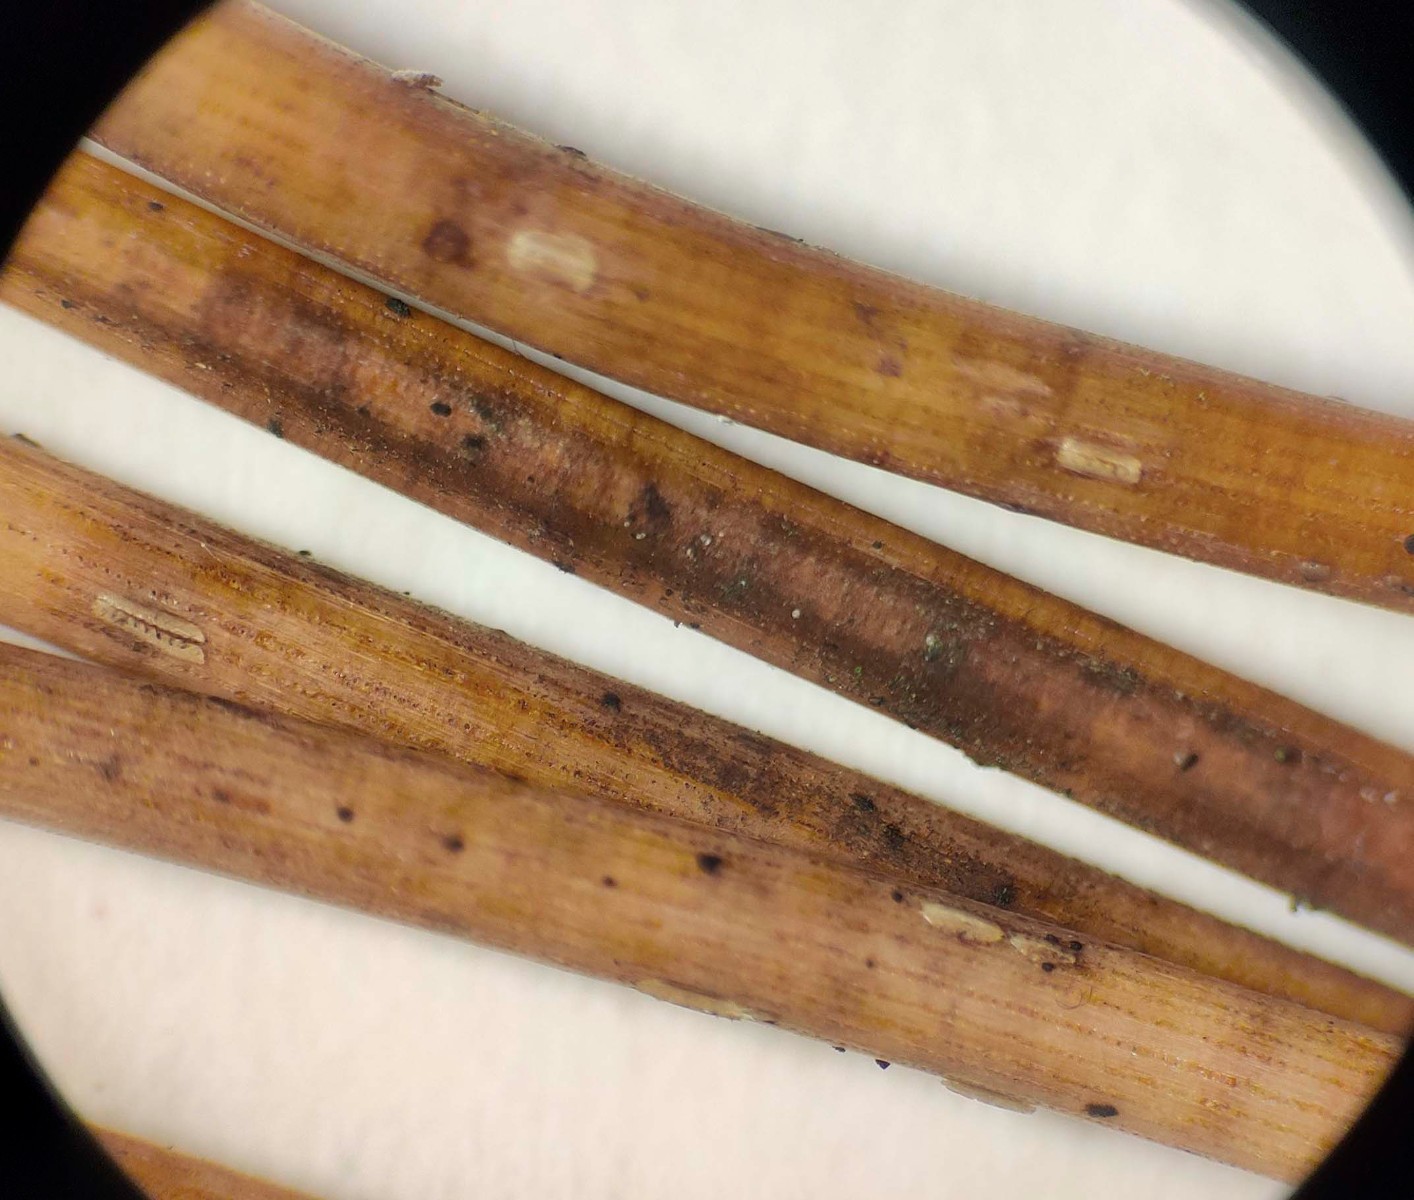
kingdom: Fungi
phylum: Ascomycota
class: Leotiomycetes
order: Chaetomellales
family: Marthamycetaceae
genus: Cyclaneusma
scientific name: Cyclaneusma minus
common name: tofliget nåleskive
